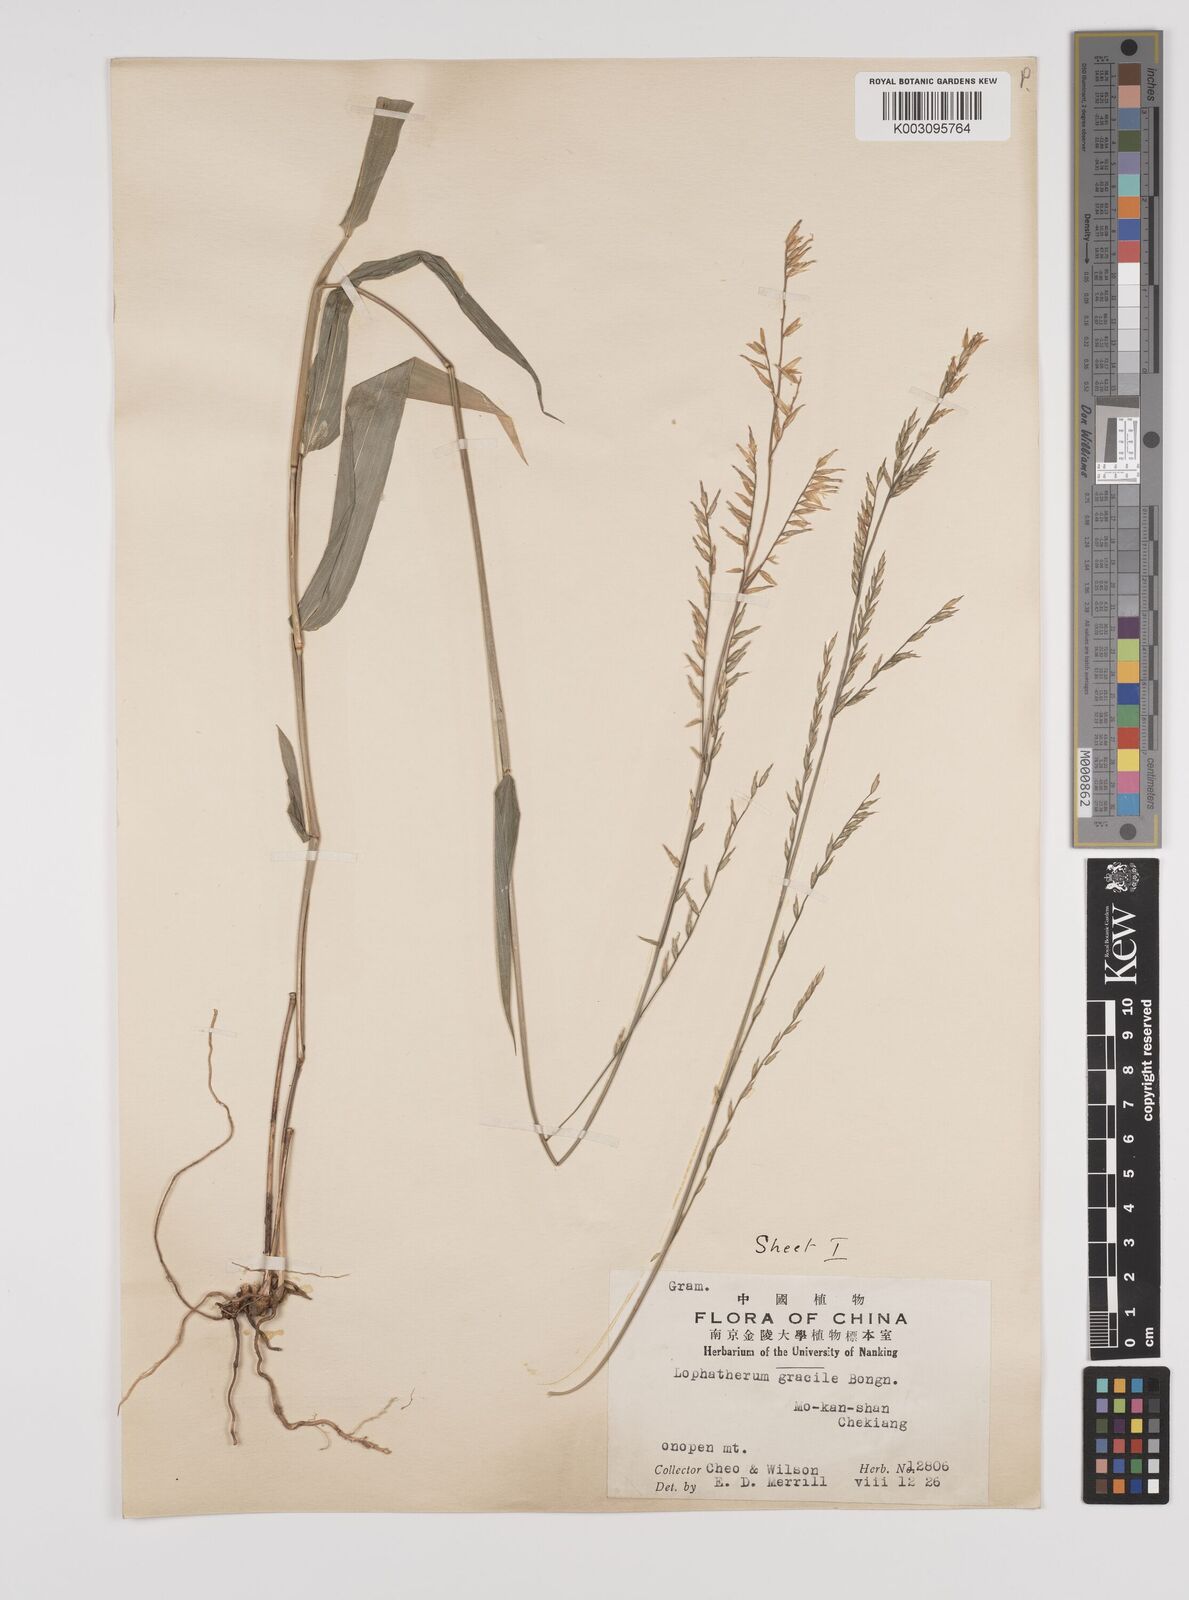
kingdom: Plantae
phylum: Tracheophyta
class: Liliopsida
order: Poales
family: Poaceae
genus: Lophatherum
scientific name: Lophatherum gracile
